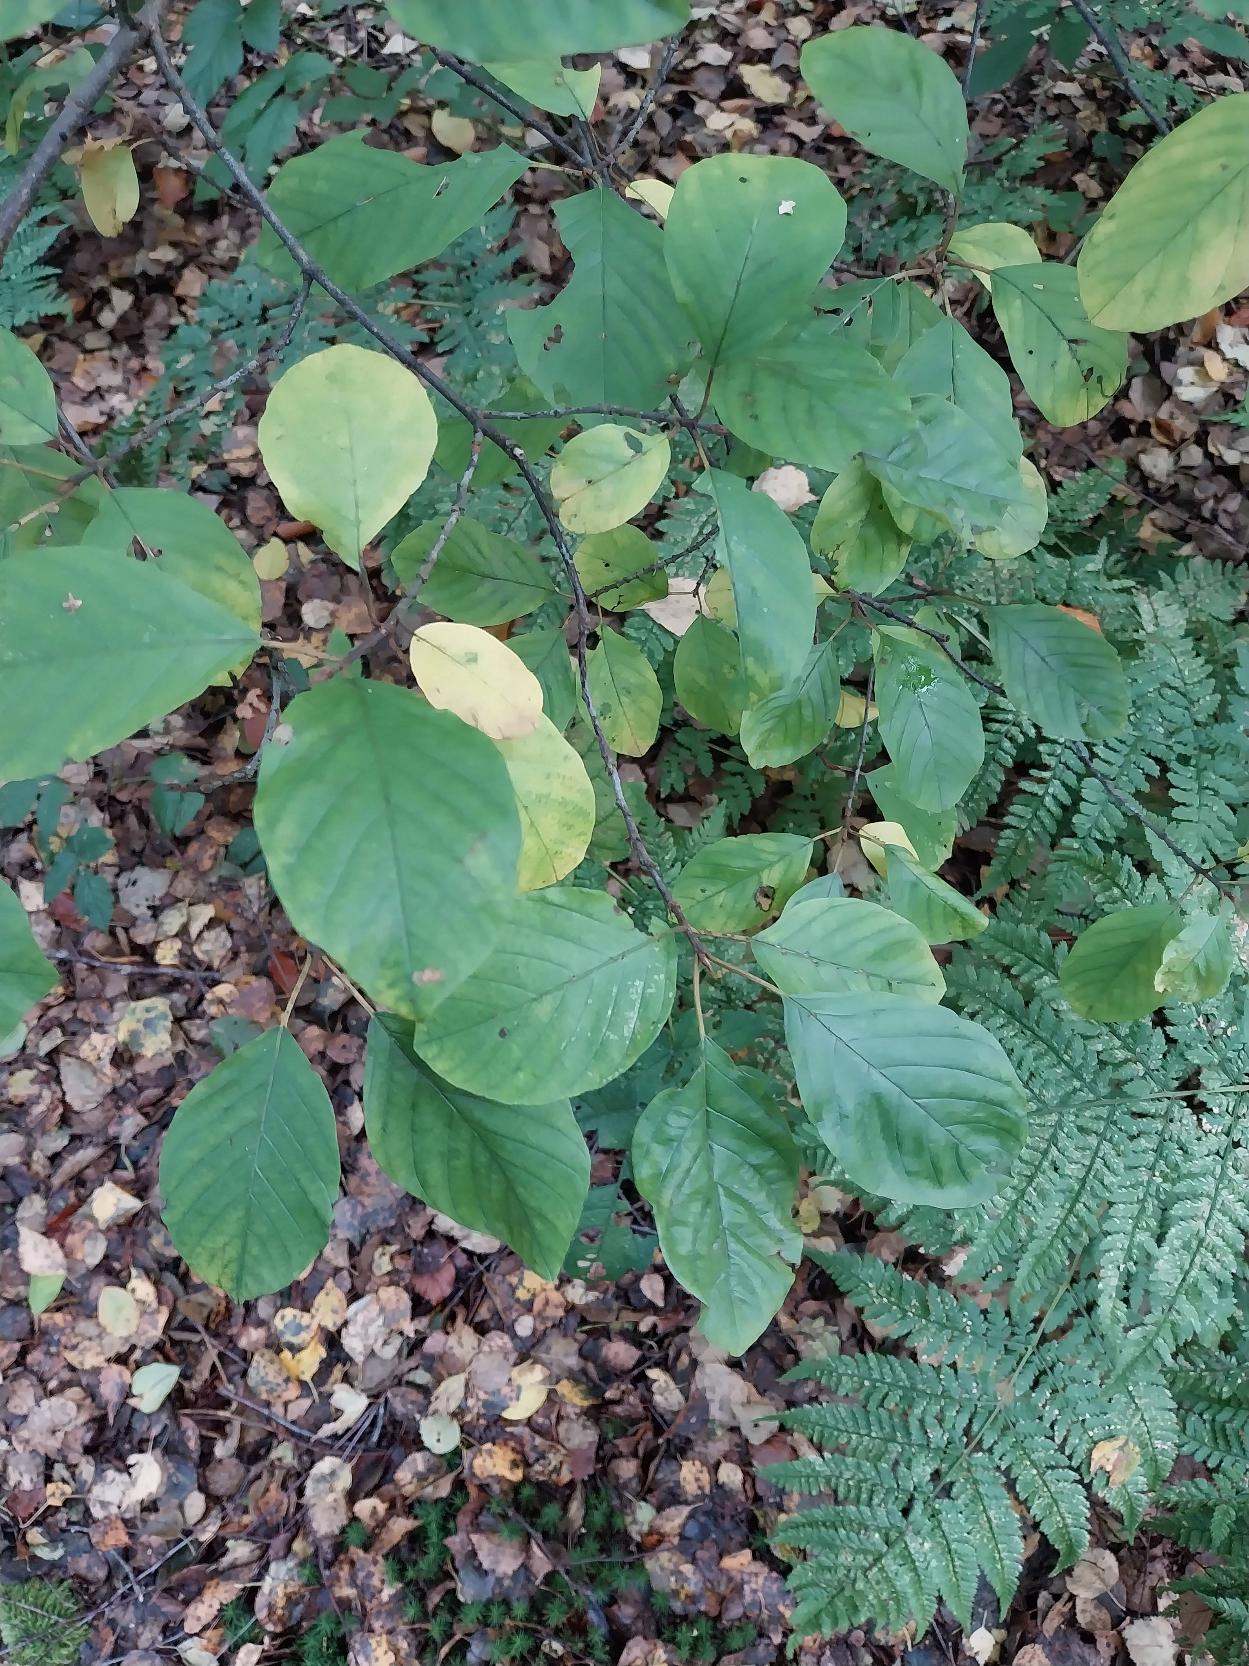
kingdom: Plantae
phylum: Tracheophyta
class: Magnoliopsida
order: Rosales
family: Rhamnaceae
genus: Frangula
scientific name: Frangula alnus
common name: Tørst
